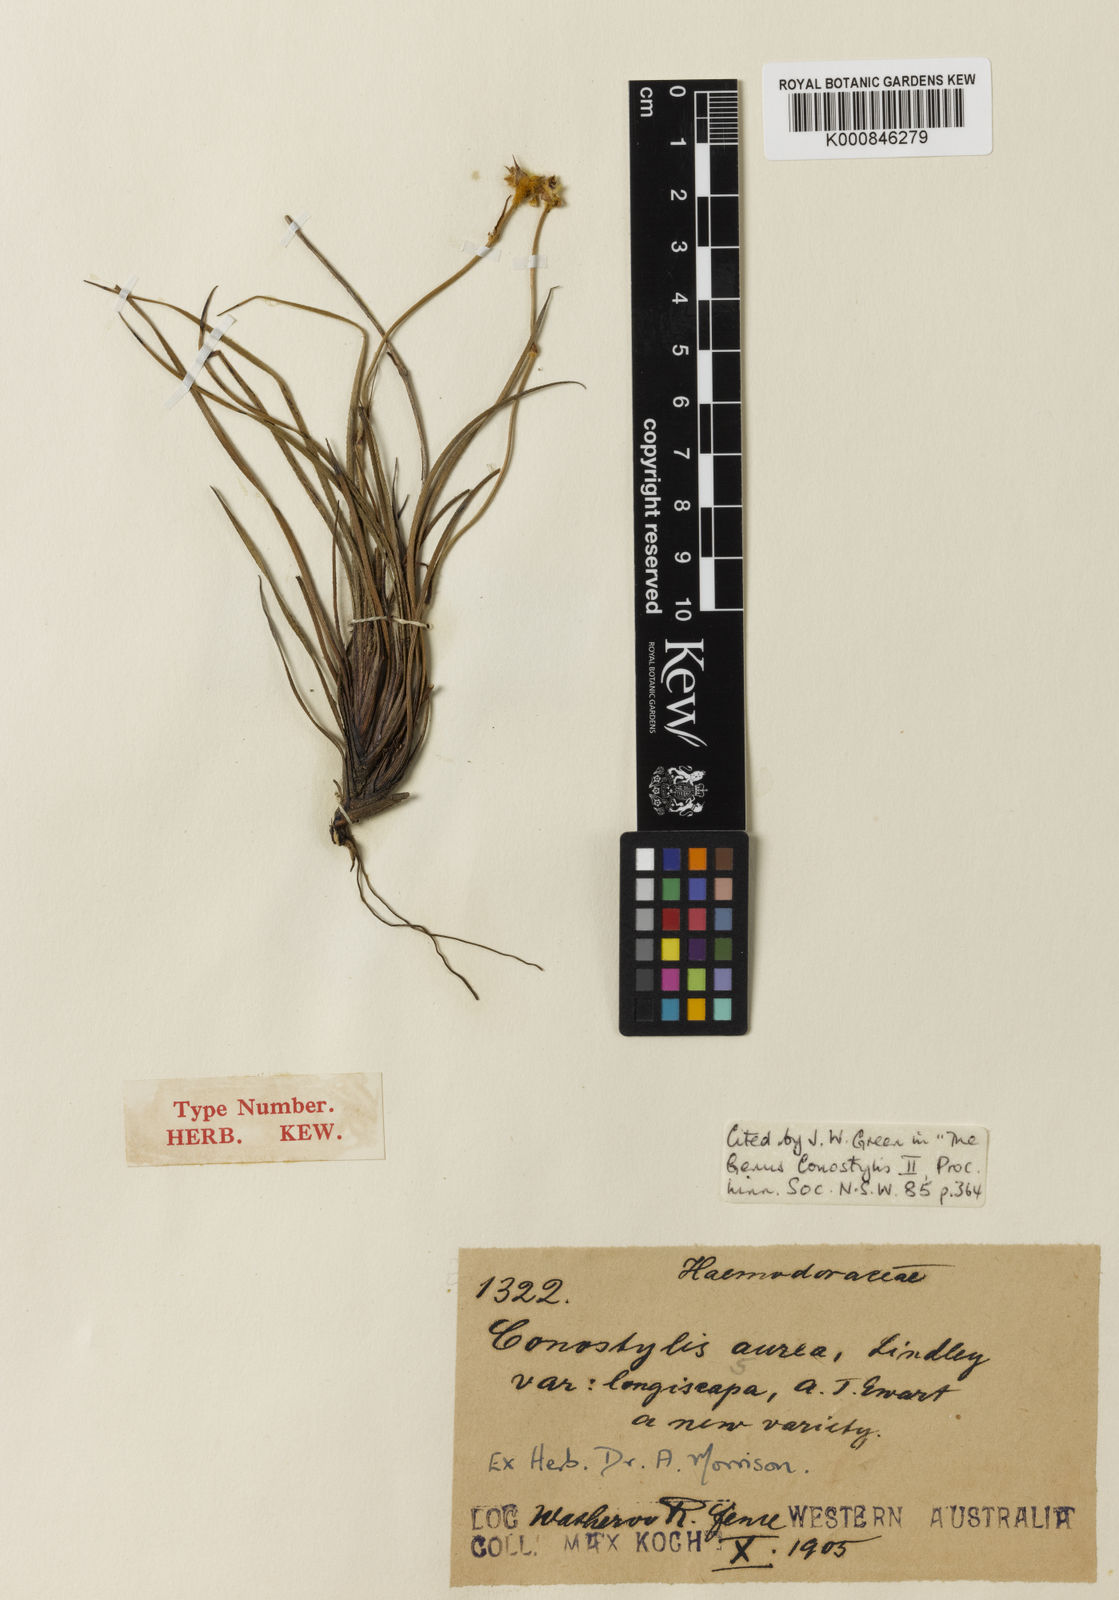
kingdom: Plantae
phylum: Tracheophyta
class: Liliopsida
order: Commelinales
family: Haemodoraceae
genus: Conostylis
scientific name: Conostylis aurea
